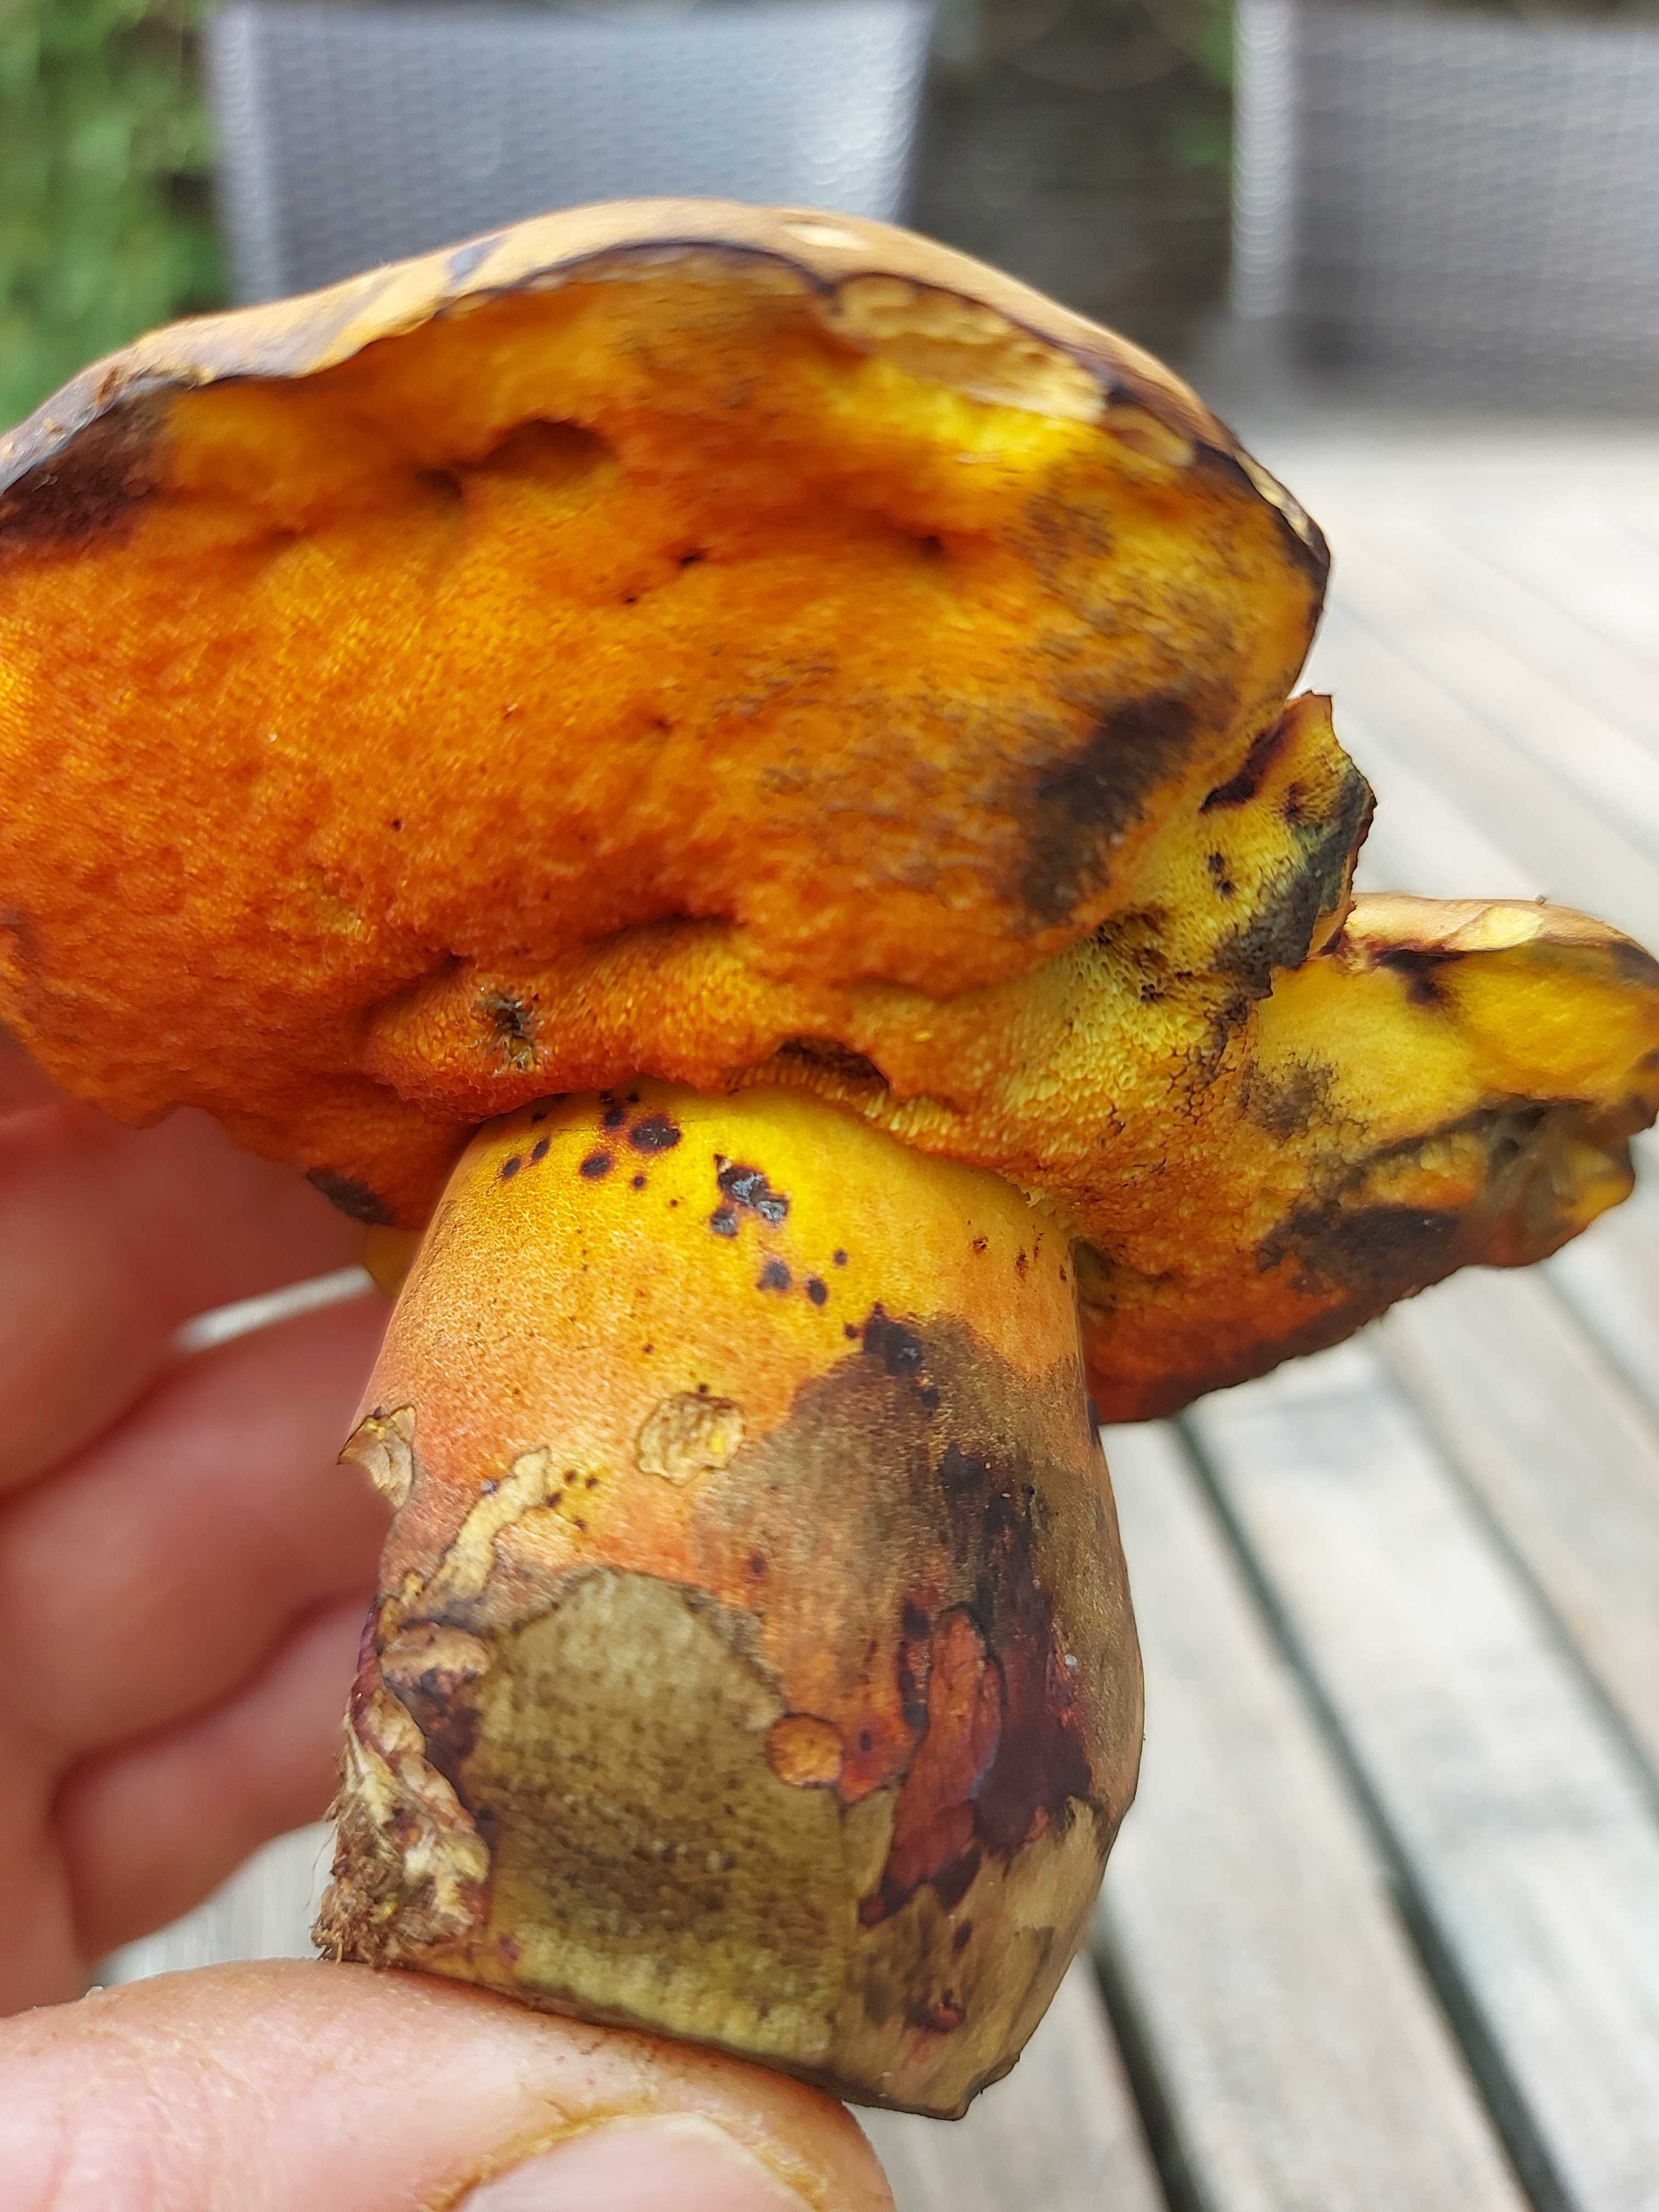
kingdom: Fungi
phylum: Basidiomycota
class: Agaricomycetes
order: Boletales
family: Boletaceae
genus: Neoboletus
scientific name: Neoboletus xanthopus
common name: finprikket indigorørhat
